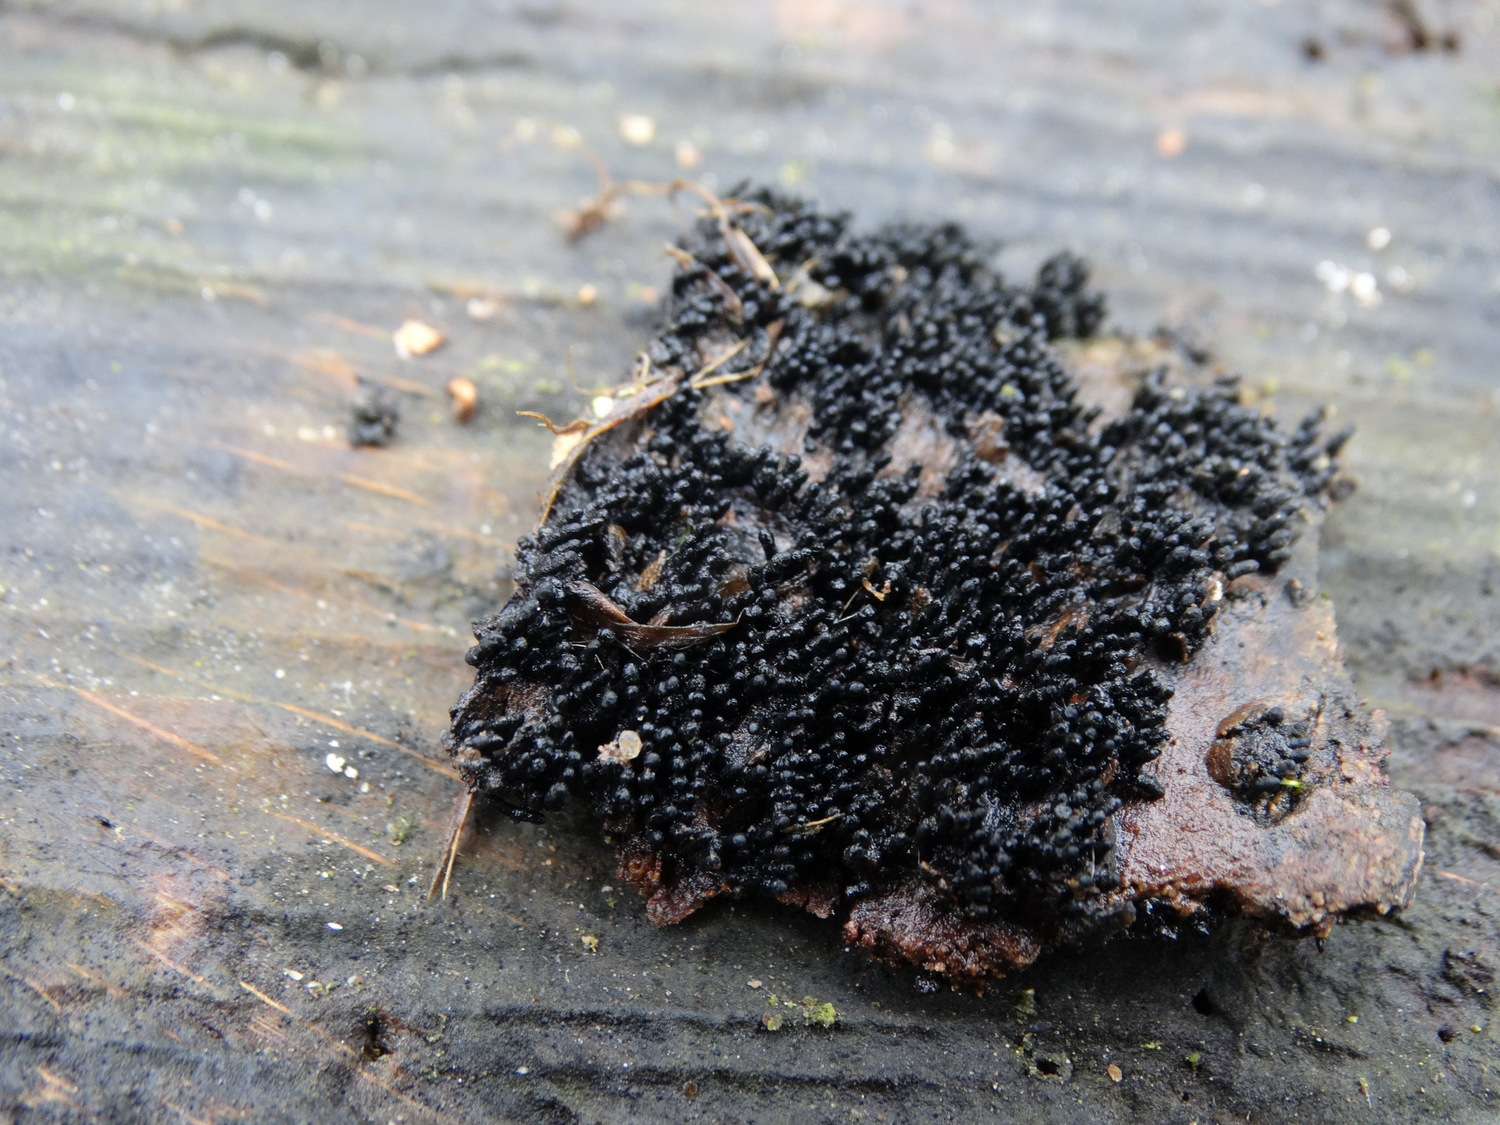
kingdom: Fungi
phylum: Ascomycota
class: Sordariomycetes
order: Xylariales
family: Melogrammataceae
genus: Melogramma
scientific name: Melogramma spiniferum
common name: bøgefod-kulhals
